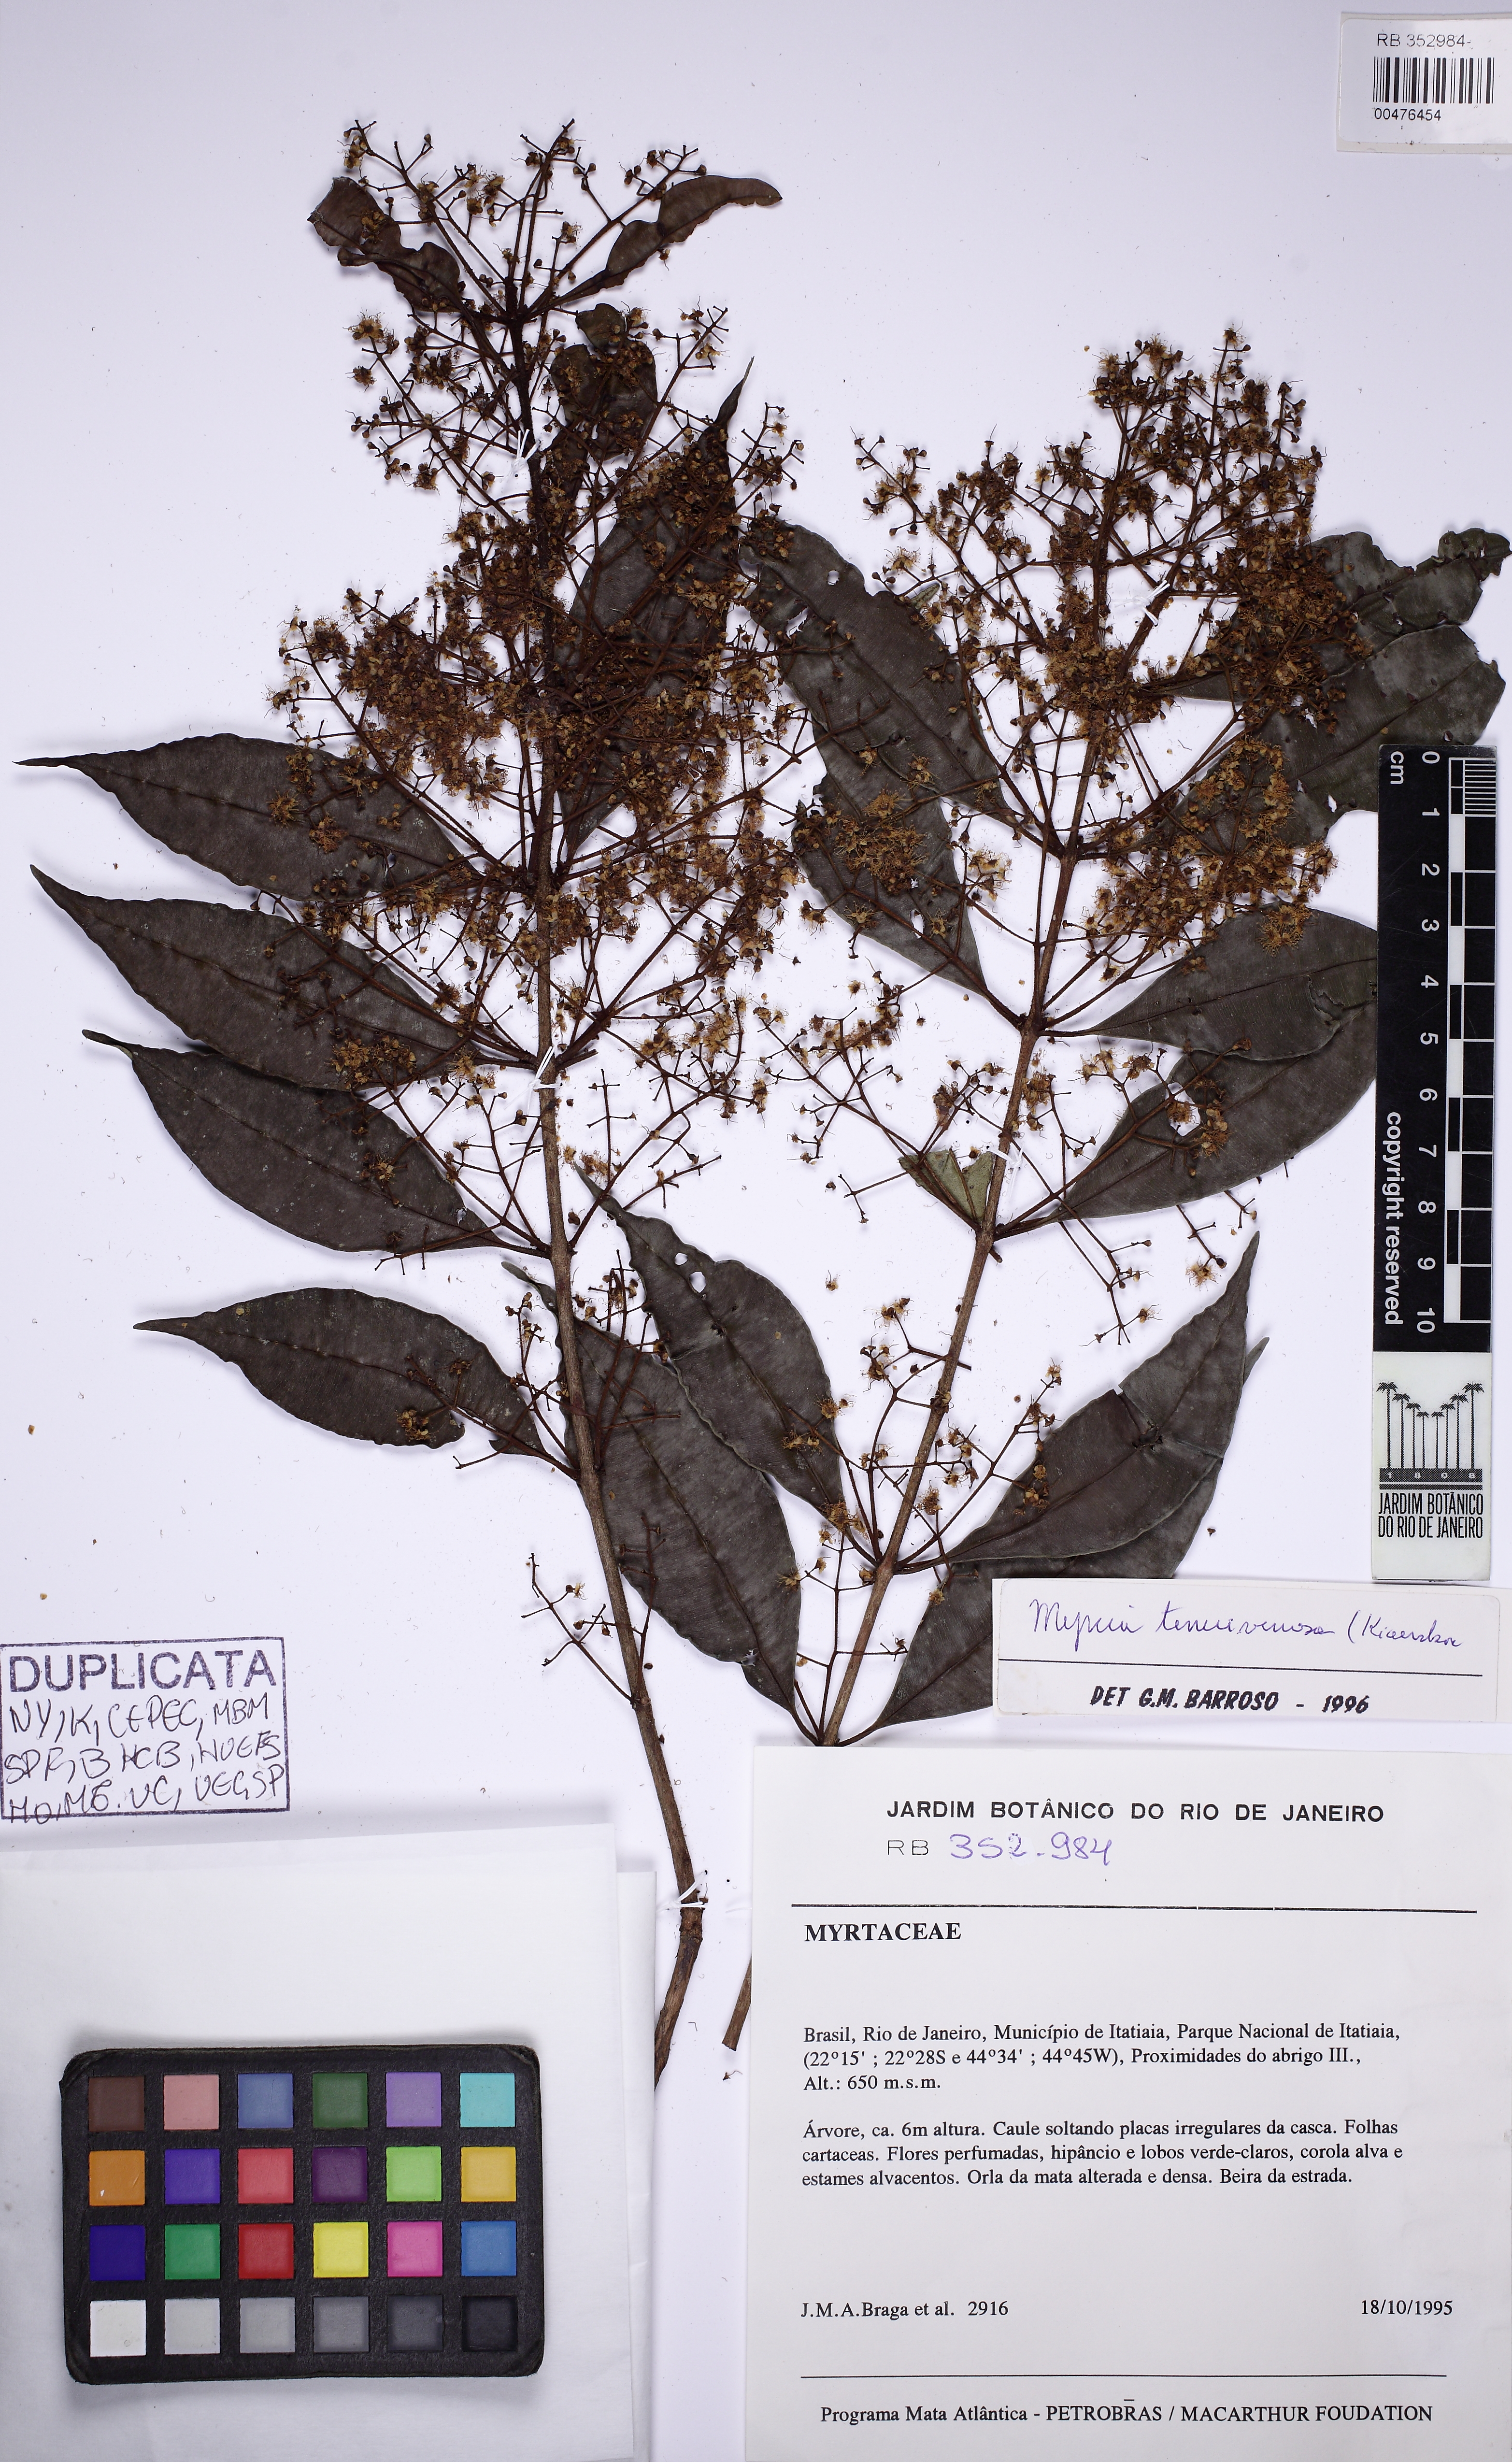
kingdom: Plantae
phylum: Tracheophyta
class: Magnoliopsida
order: Myrtales
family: Myrtaceae
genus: Myrcia
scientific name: Myrcia tenuivenosa
